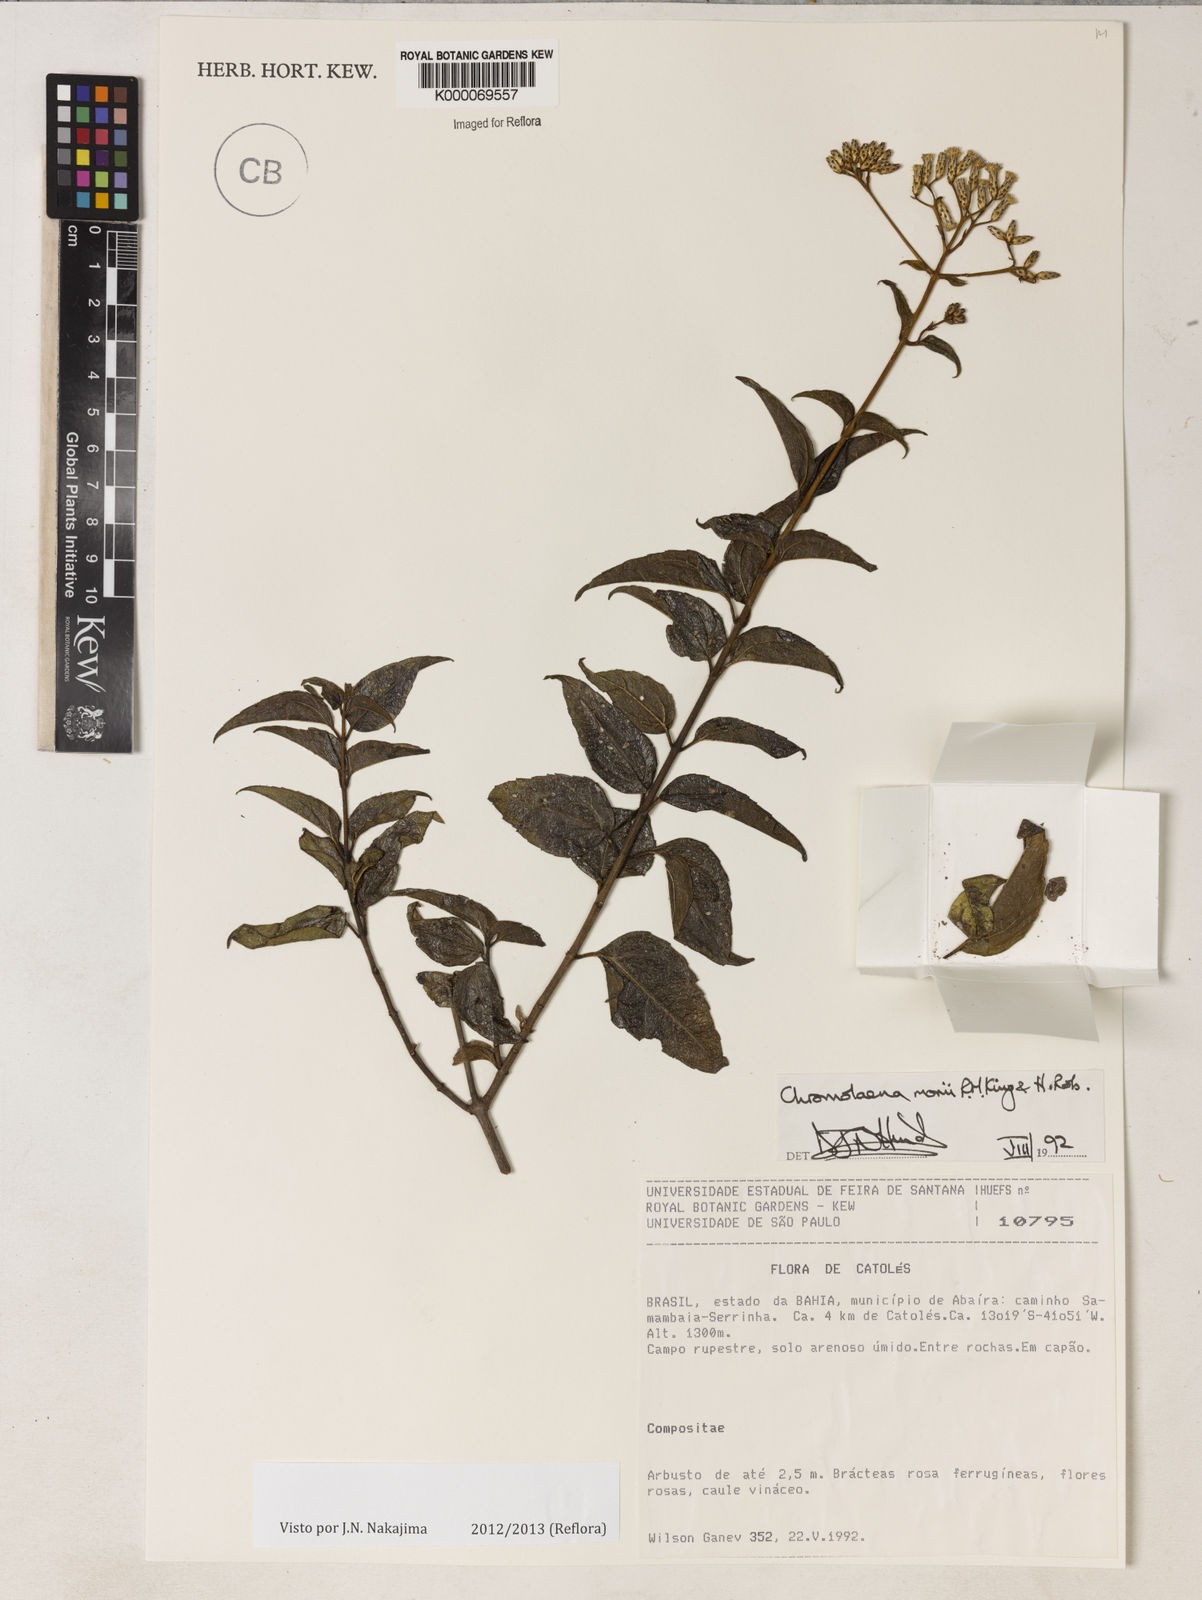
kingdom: Plantae
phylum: Tracheophyta
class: Magnoliopsida
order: Asterales
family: Asteraceae
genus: Chromolaena
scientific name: Chromolaena morii
